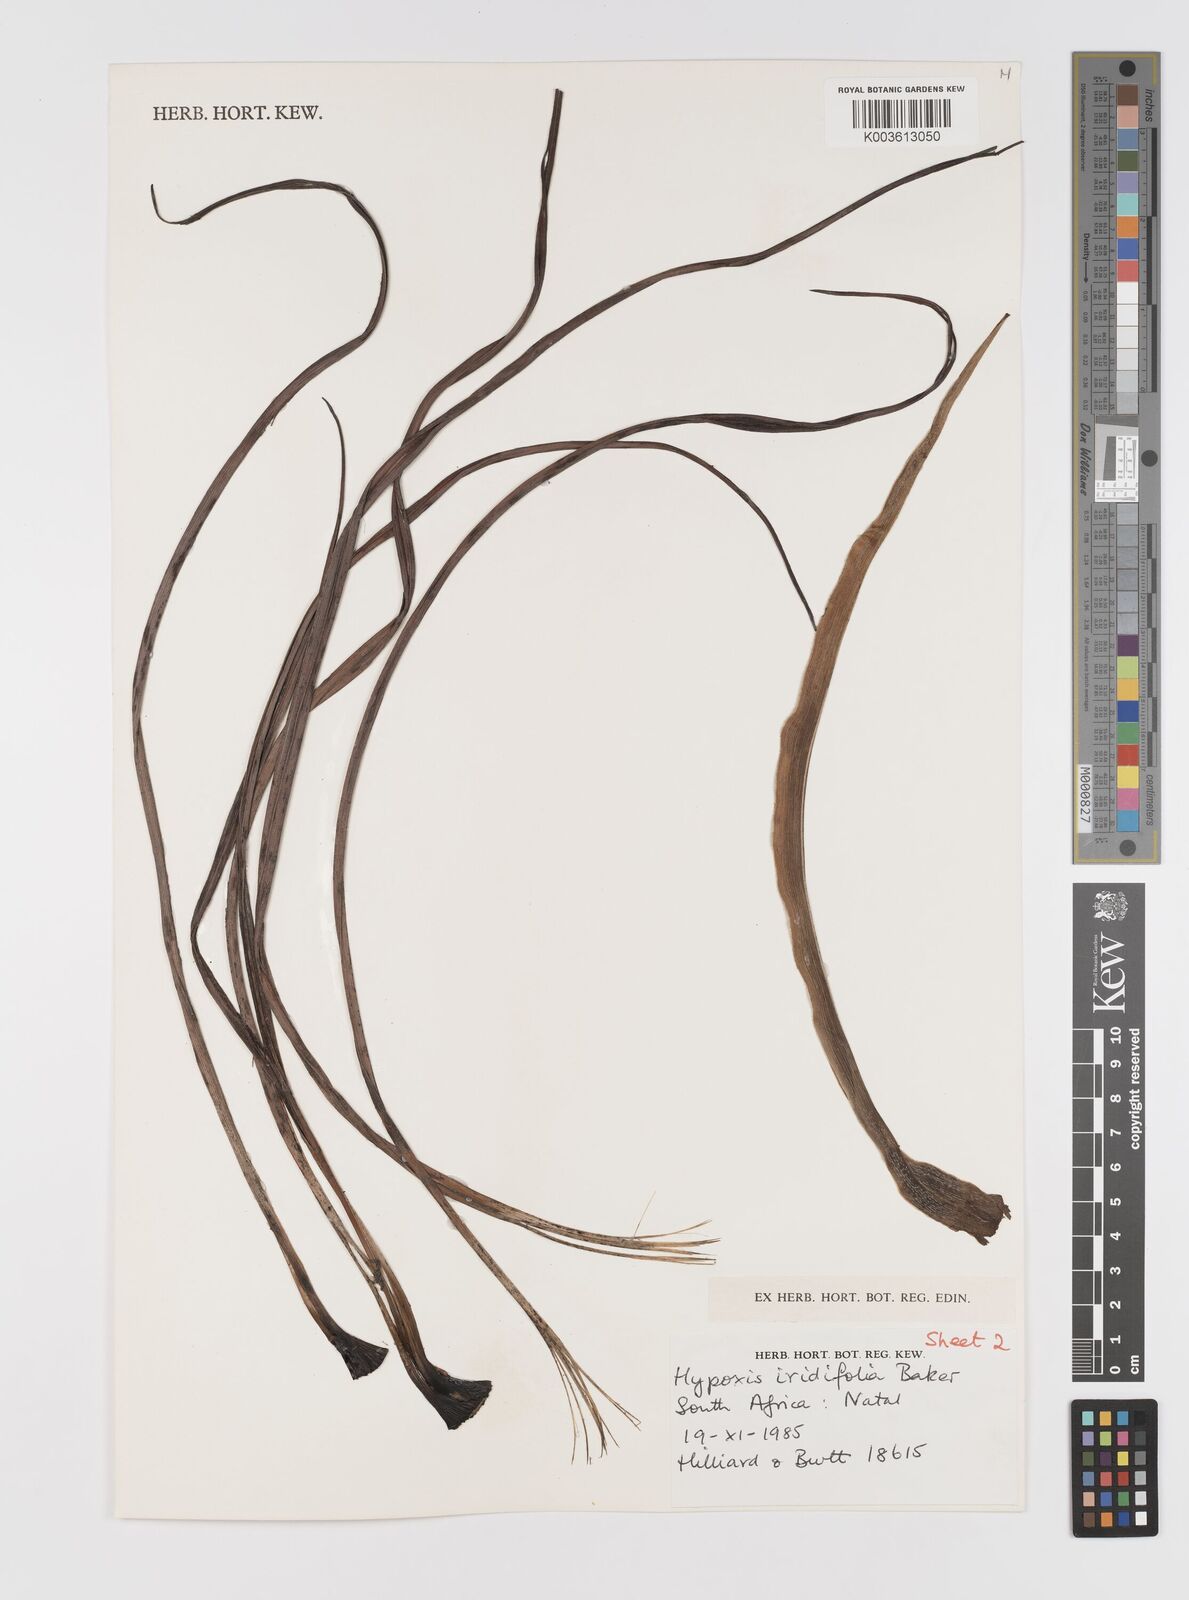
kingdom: Plantae
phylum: Tracheophyta
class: Liliopsida
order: Asparagales
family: Hypoxidaceae
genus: Hypoxis
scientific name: Hypoxis obtusa
